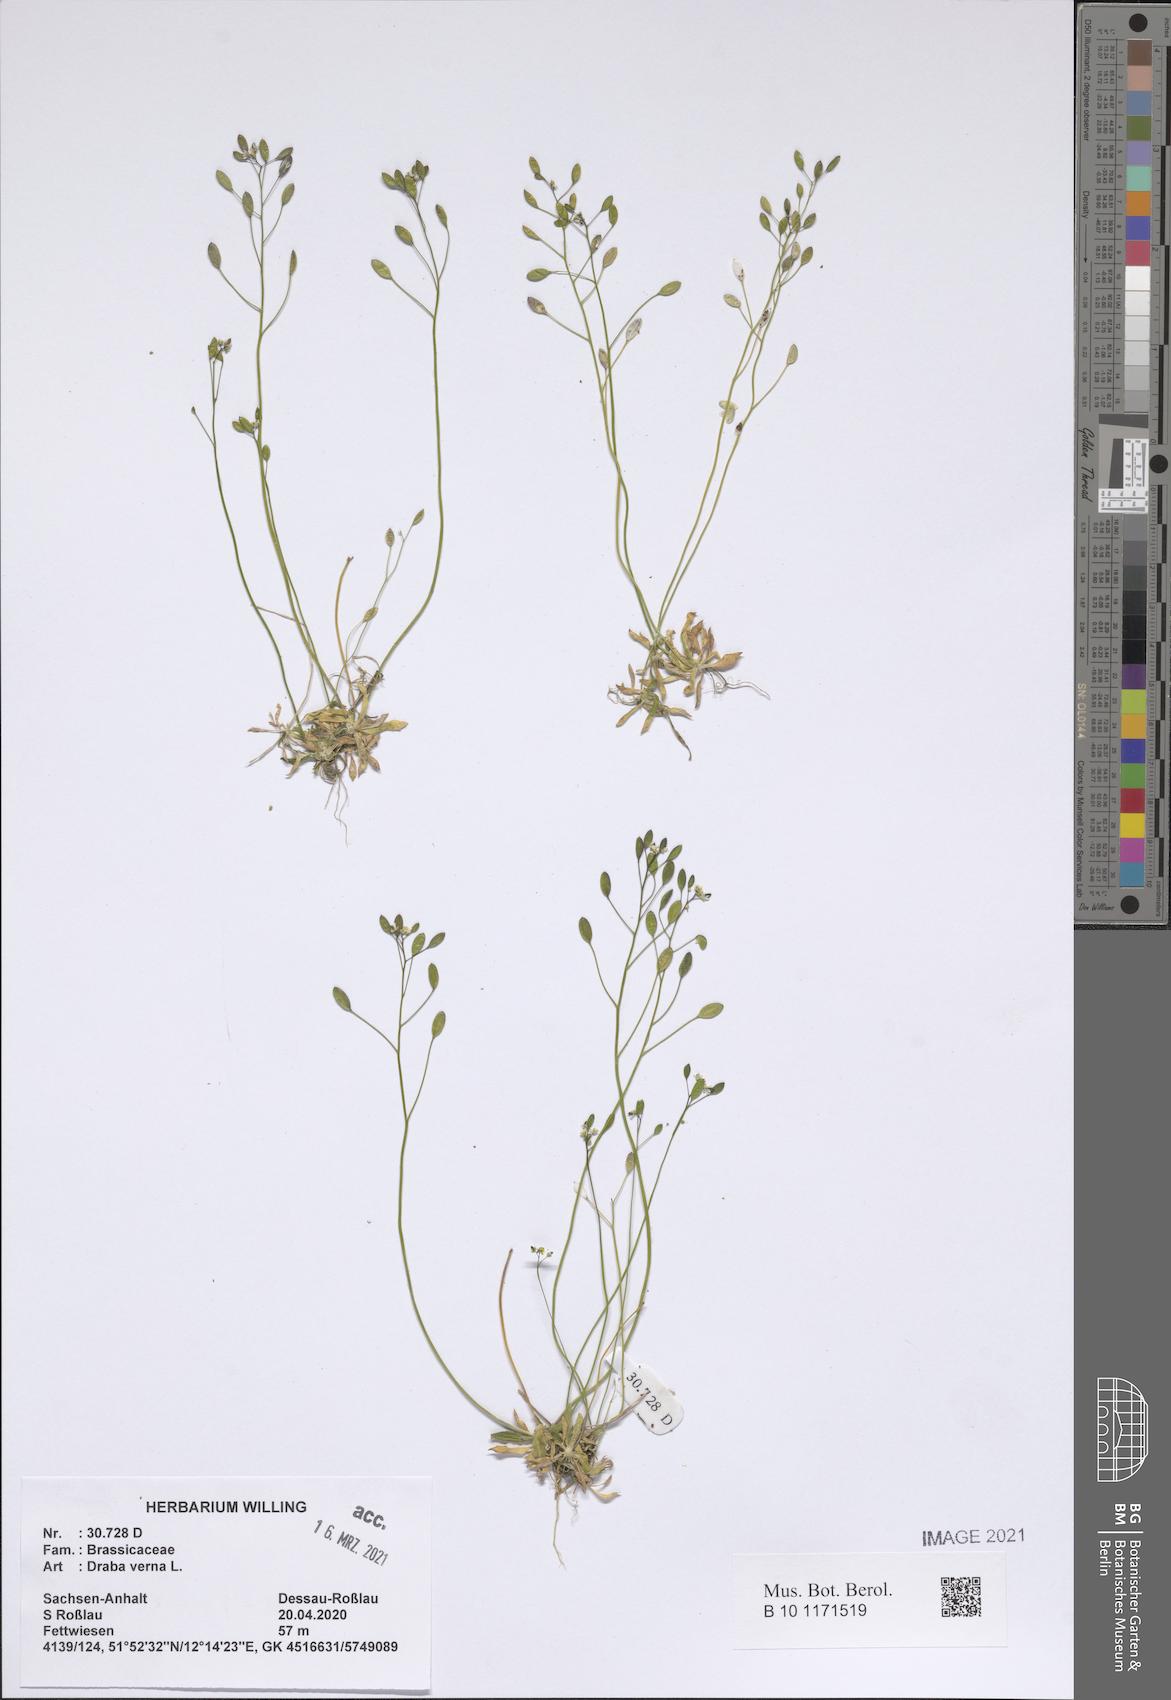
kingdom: Plantae
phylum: Tracheophyta
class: Magnoliopsida
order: Brassicales
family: Brassicaceae
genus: Draba
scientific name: Draba verna
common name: Spring draba
